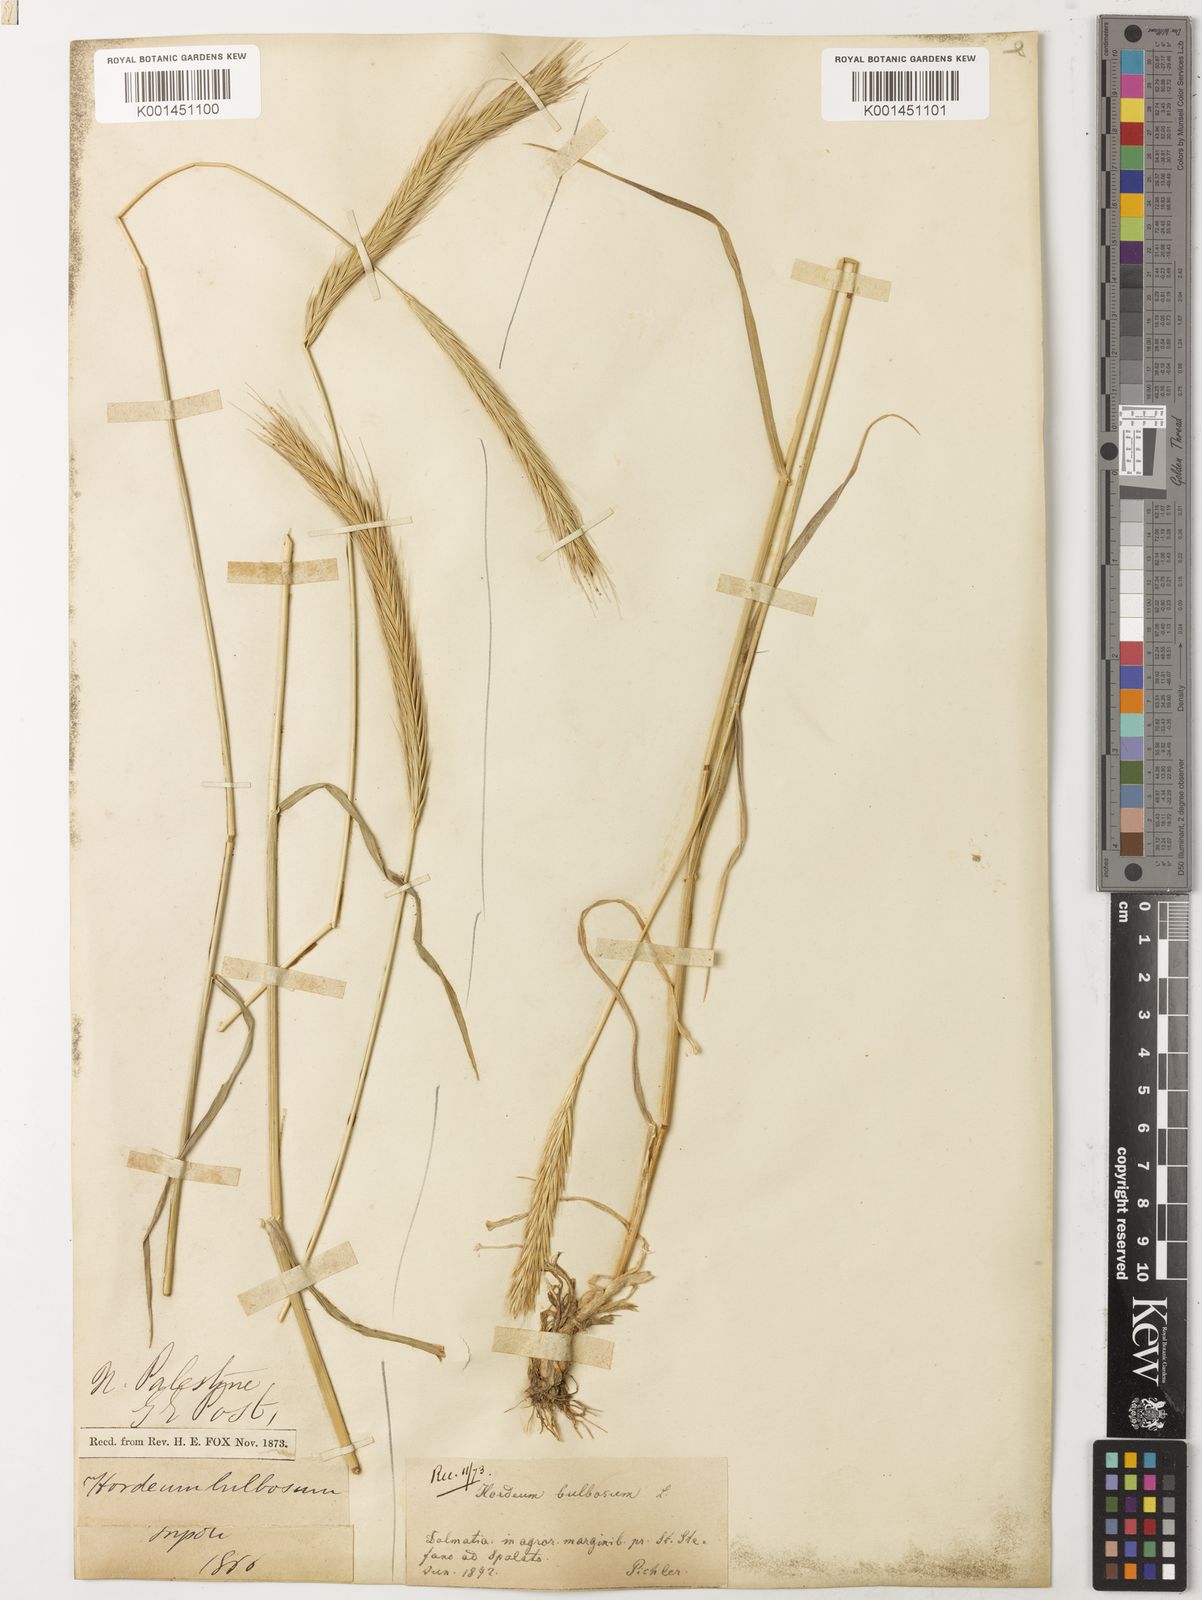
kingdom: Plantae
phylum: Tracheophyta
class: Liliopsida
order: Poales
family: Poaceae
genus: Hordeum
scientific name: Hordeum bulbosum
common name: Bulbous barley
